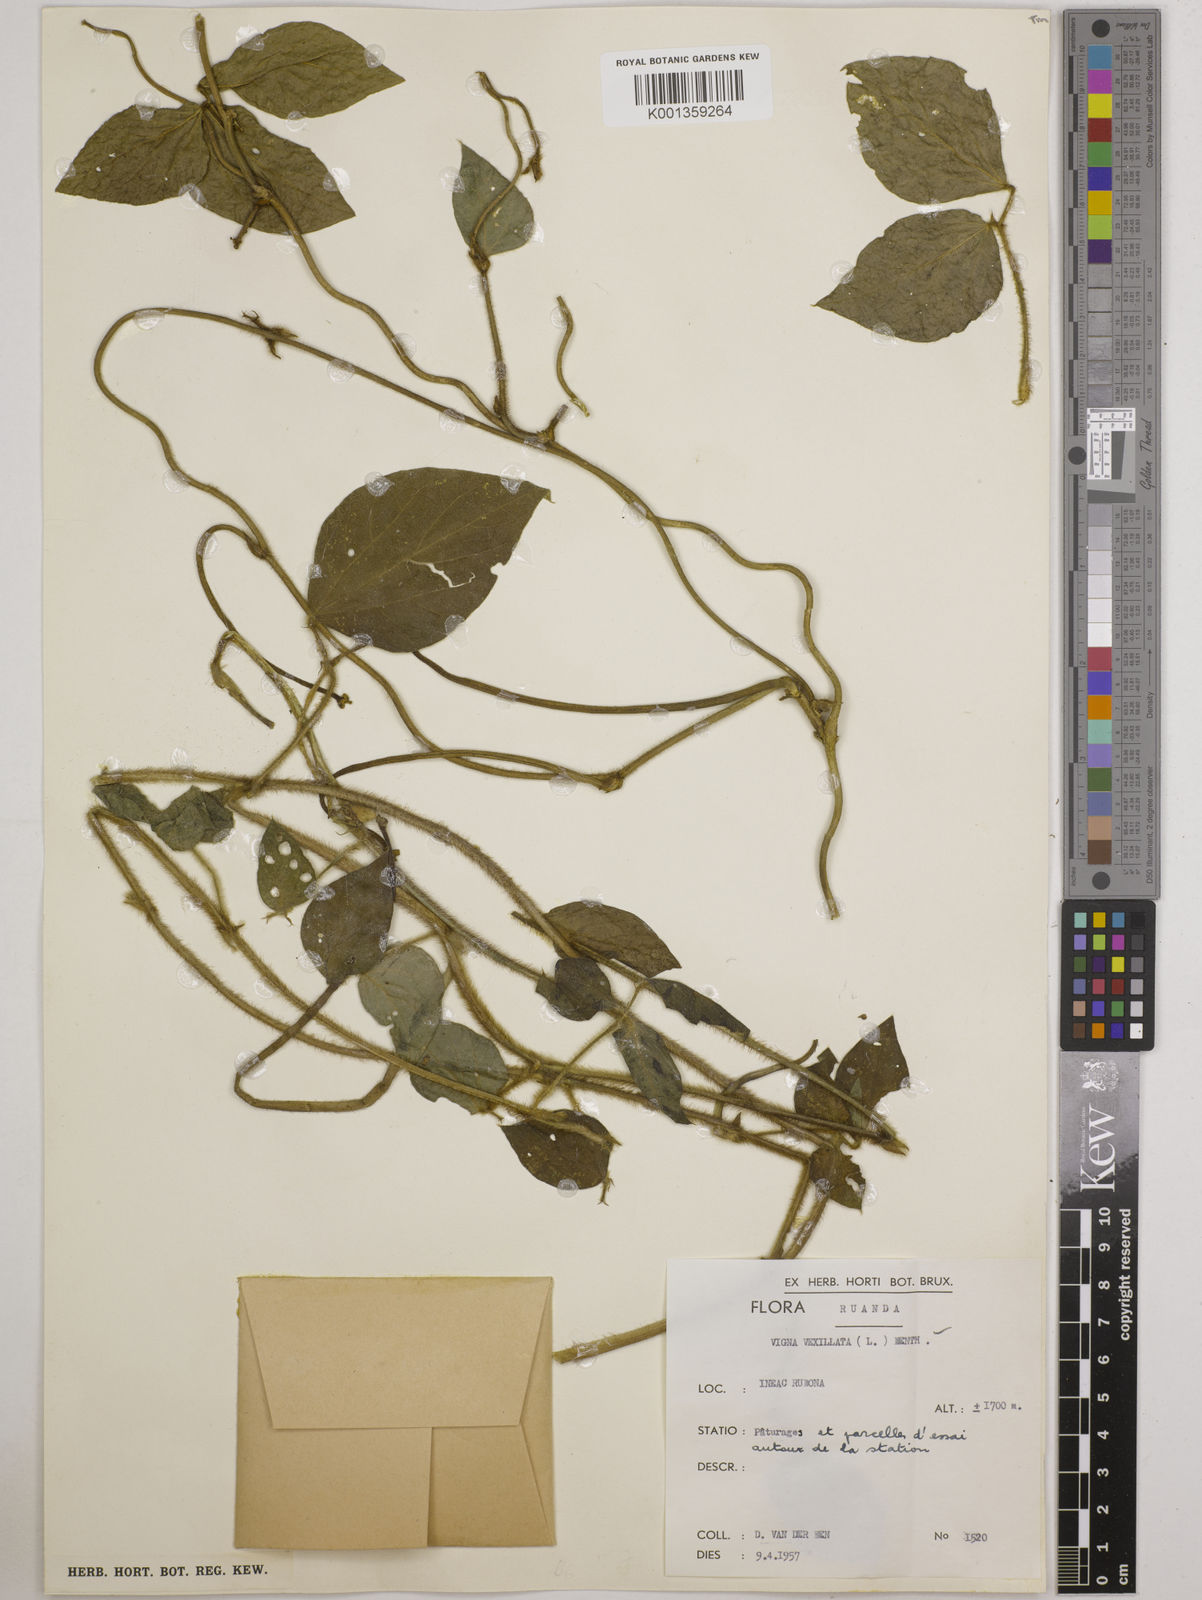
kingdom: Plantae
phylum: Tracheophyta
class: Magnoliopsida
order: Fabales
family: Fabaceae
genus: Vigna
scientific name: Vigna vexillata
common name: Zombi pea
